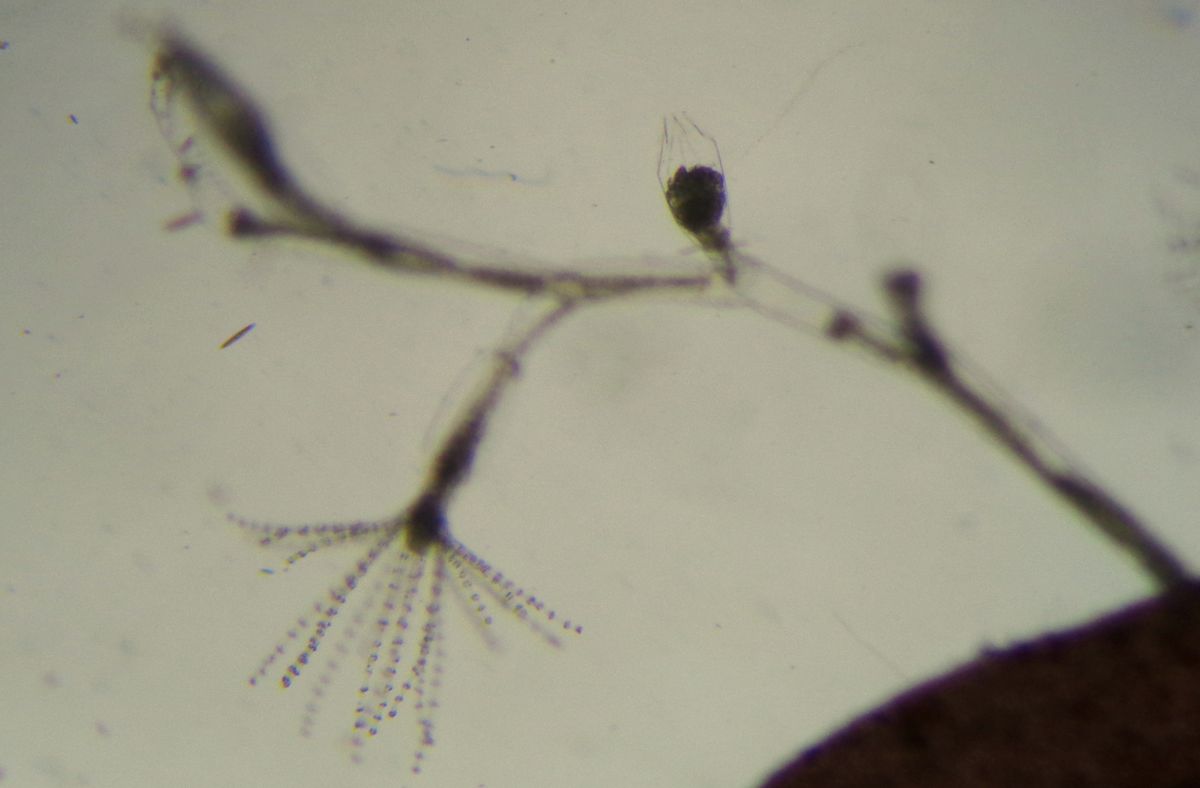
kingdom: Animalia
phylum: Cnidaria
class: Hydrozoa
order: Leptothecata
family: Campanulinidae
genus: Opercularella
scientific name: Opercularella lacerata
